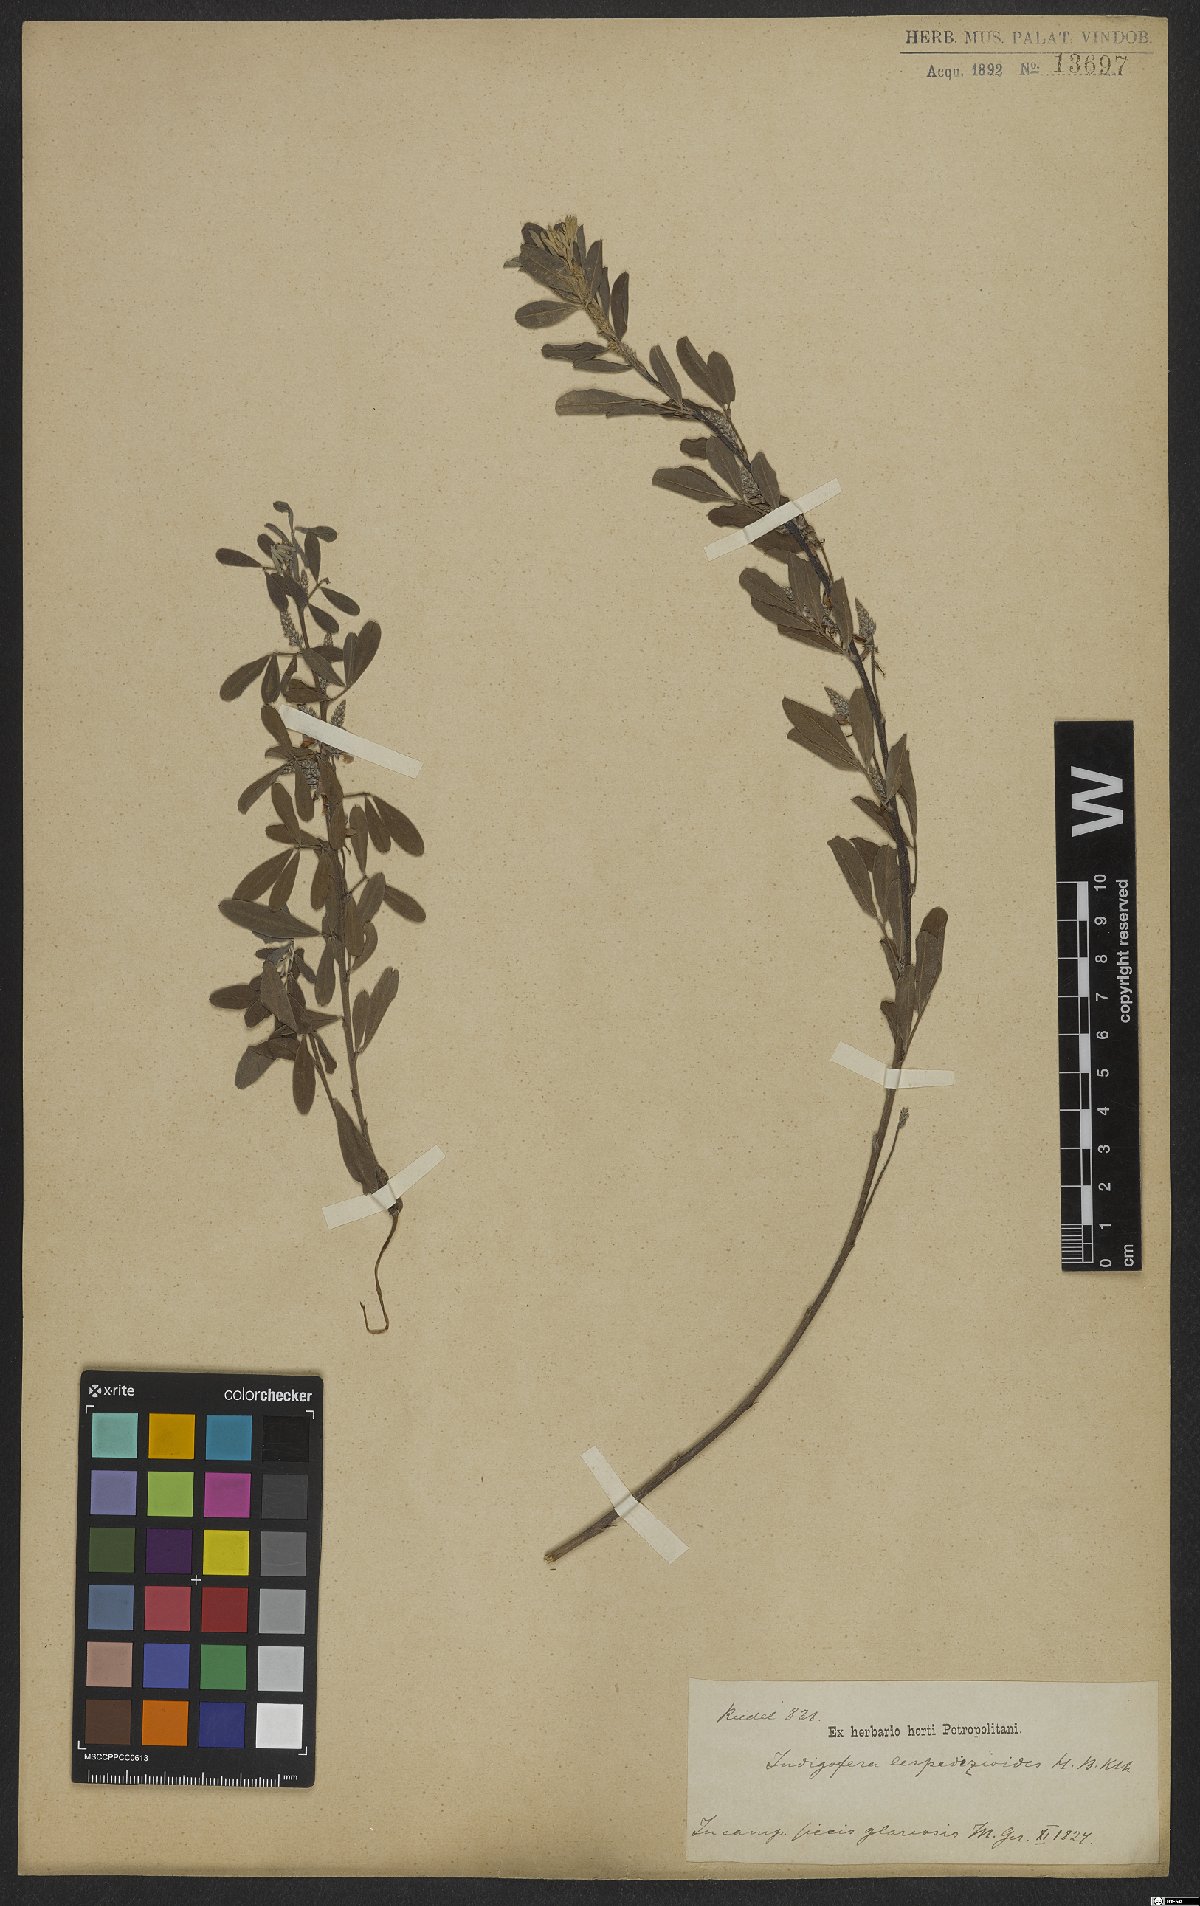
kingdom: Plantae
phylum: Tracheophyta
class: Magnoliopsida
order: Fabales
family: Fabaceae
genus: Indigofera
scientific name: Indigofera lespedezioides
